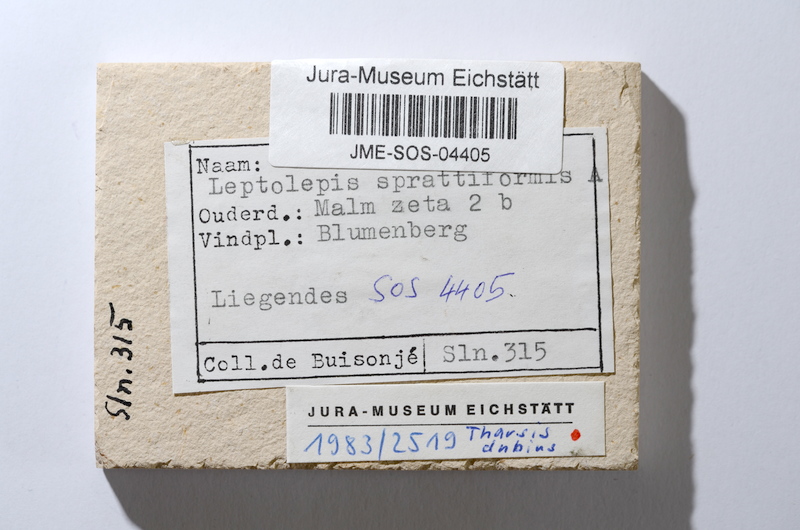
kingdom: Animalia
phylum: Chordata
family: Ascalaboidae
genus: Tharsis
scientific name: Tharsis dubius
